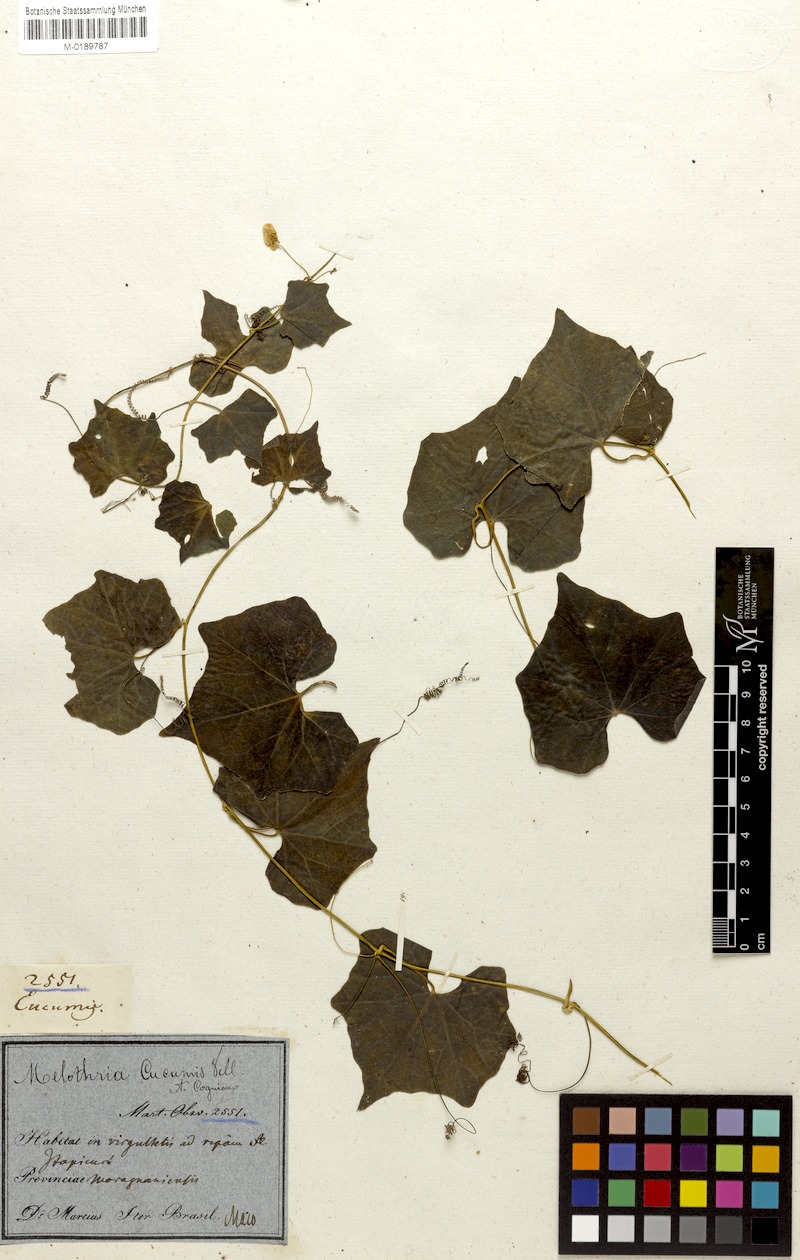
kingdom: Plantae
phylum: Tracheophyta
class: Magnoliopsida
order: Cucurbitales
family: Cucurbitaceae
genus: Melothria
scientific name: Melothria cucumis
